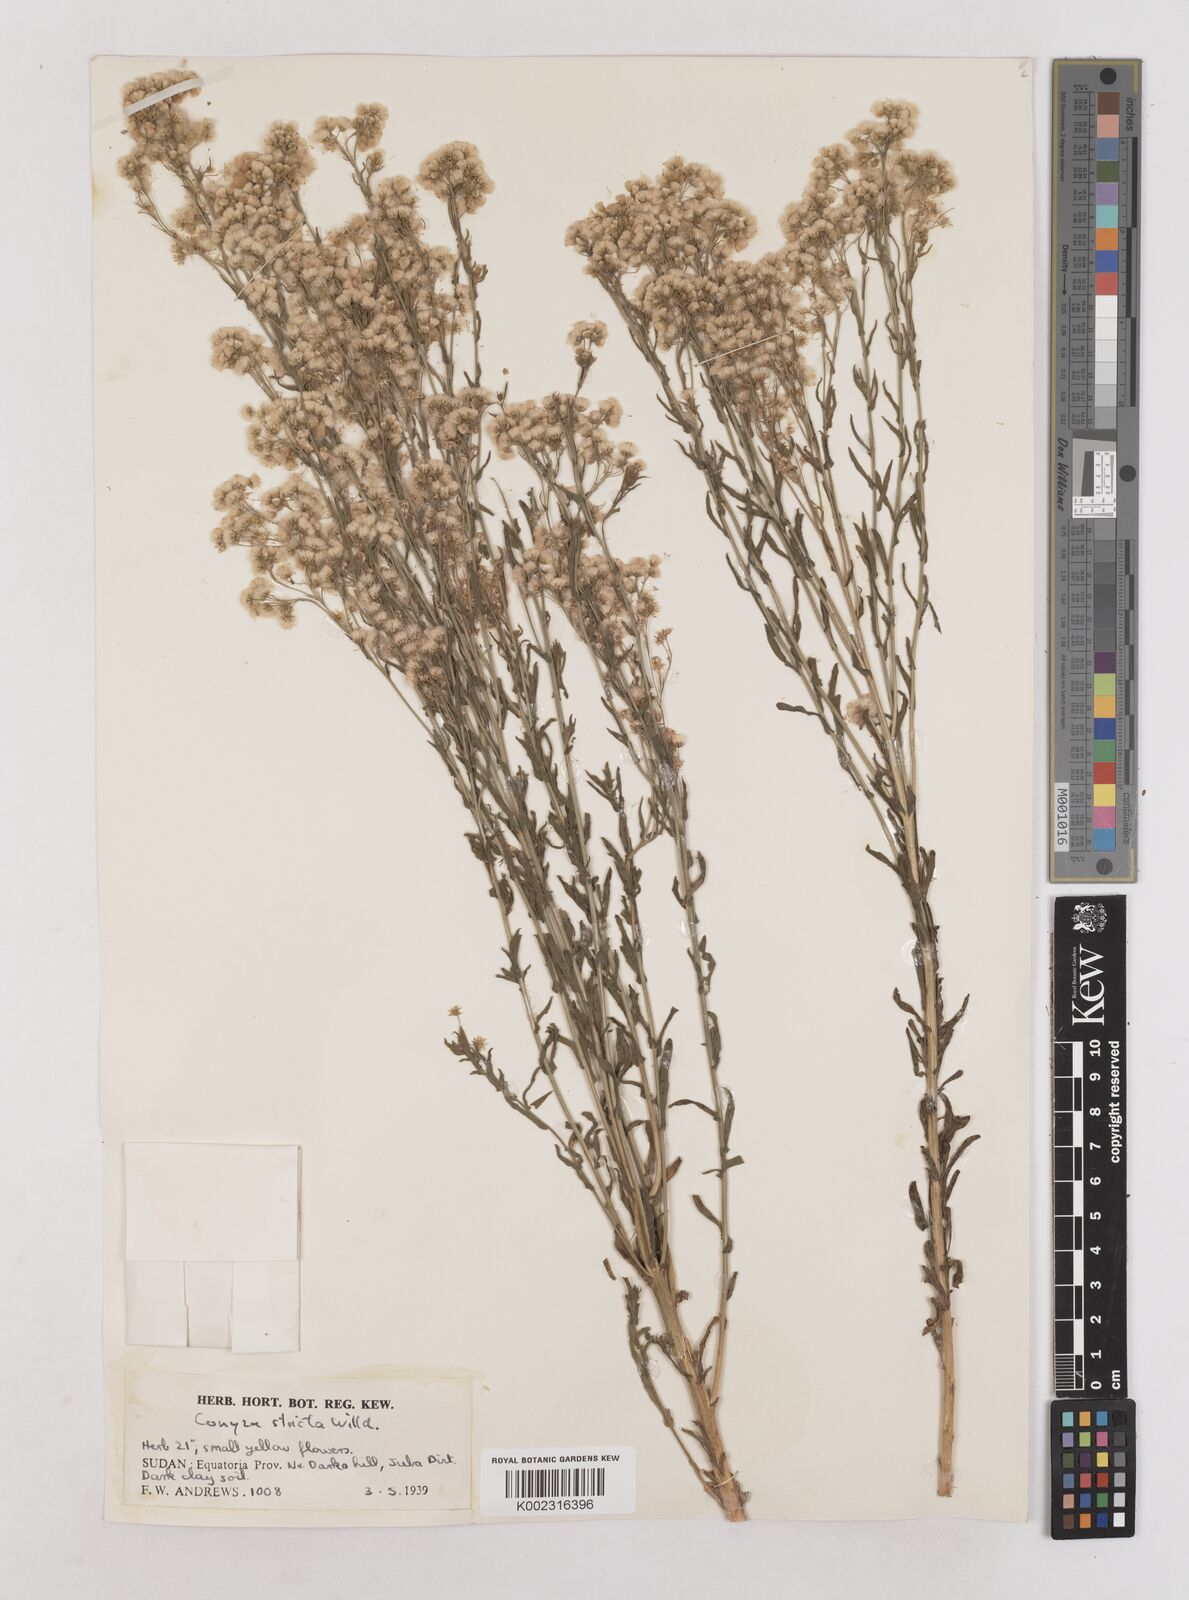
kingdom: Plantae
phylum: Tracheophyta
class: Magnoliopsida
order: Asterales
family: Asteraceae
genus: Nidorella
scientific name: Nidorella triloba
